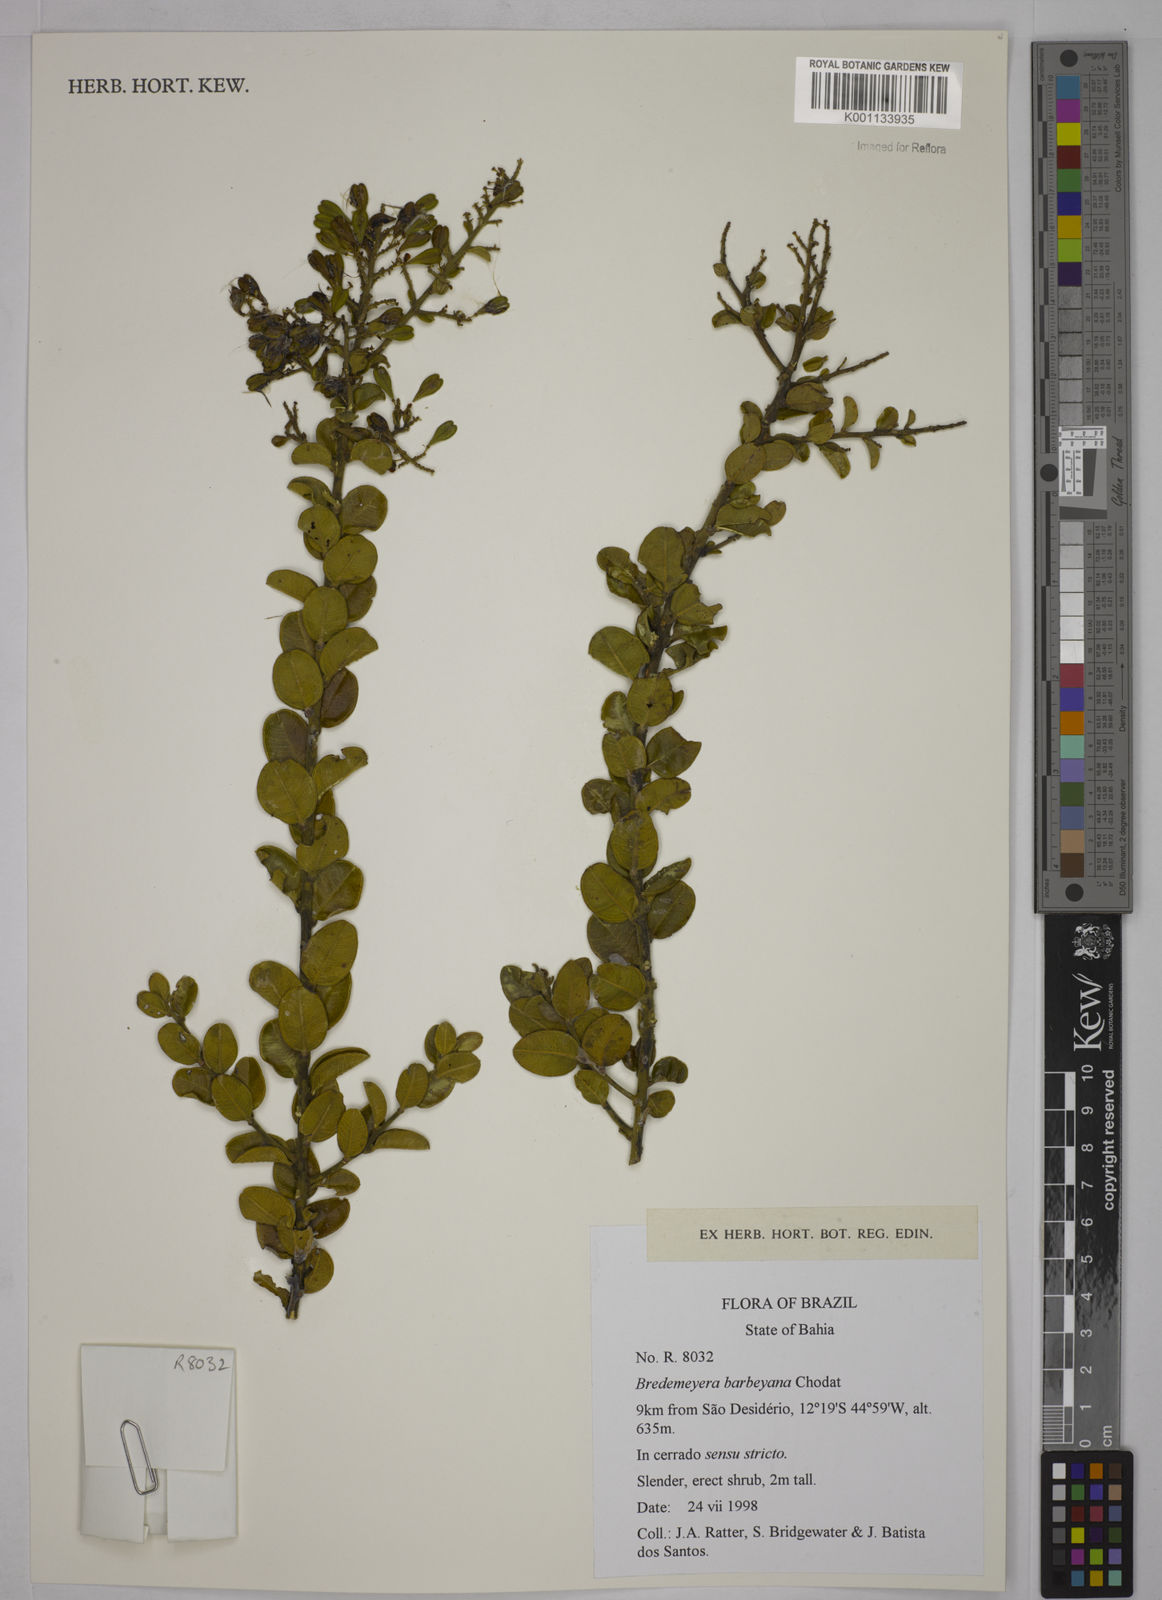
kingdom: Plantae
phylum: Tracheophyta
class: Magnoliopsida
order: Fabales
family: Polygalaceae
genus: Bredemeyera
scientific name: Bredemeyera barbeyana
